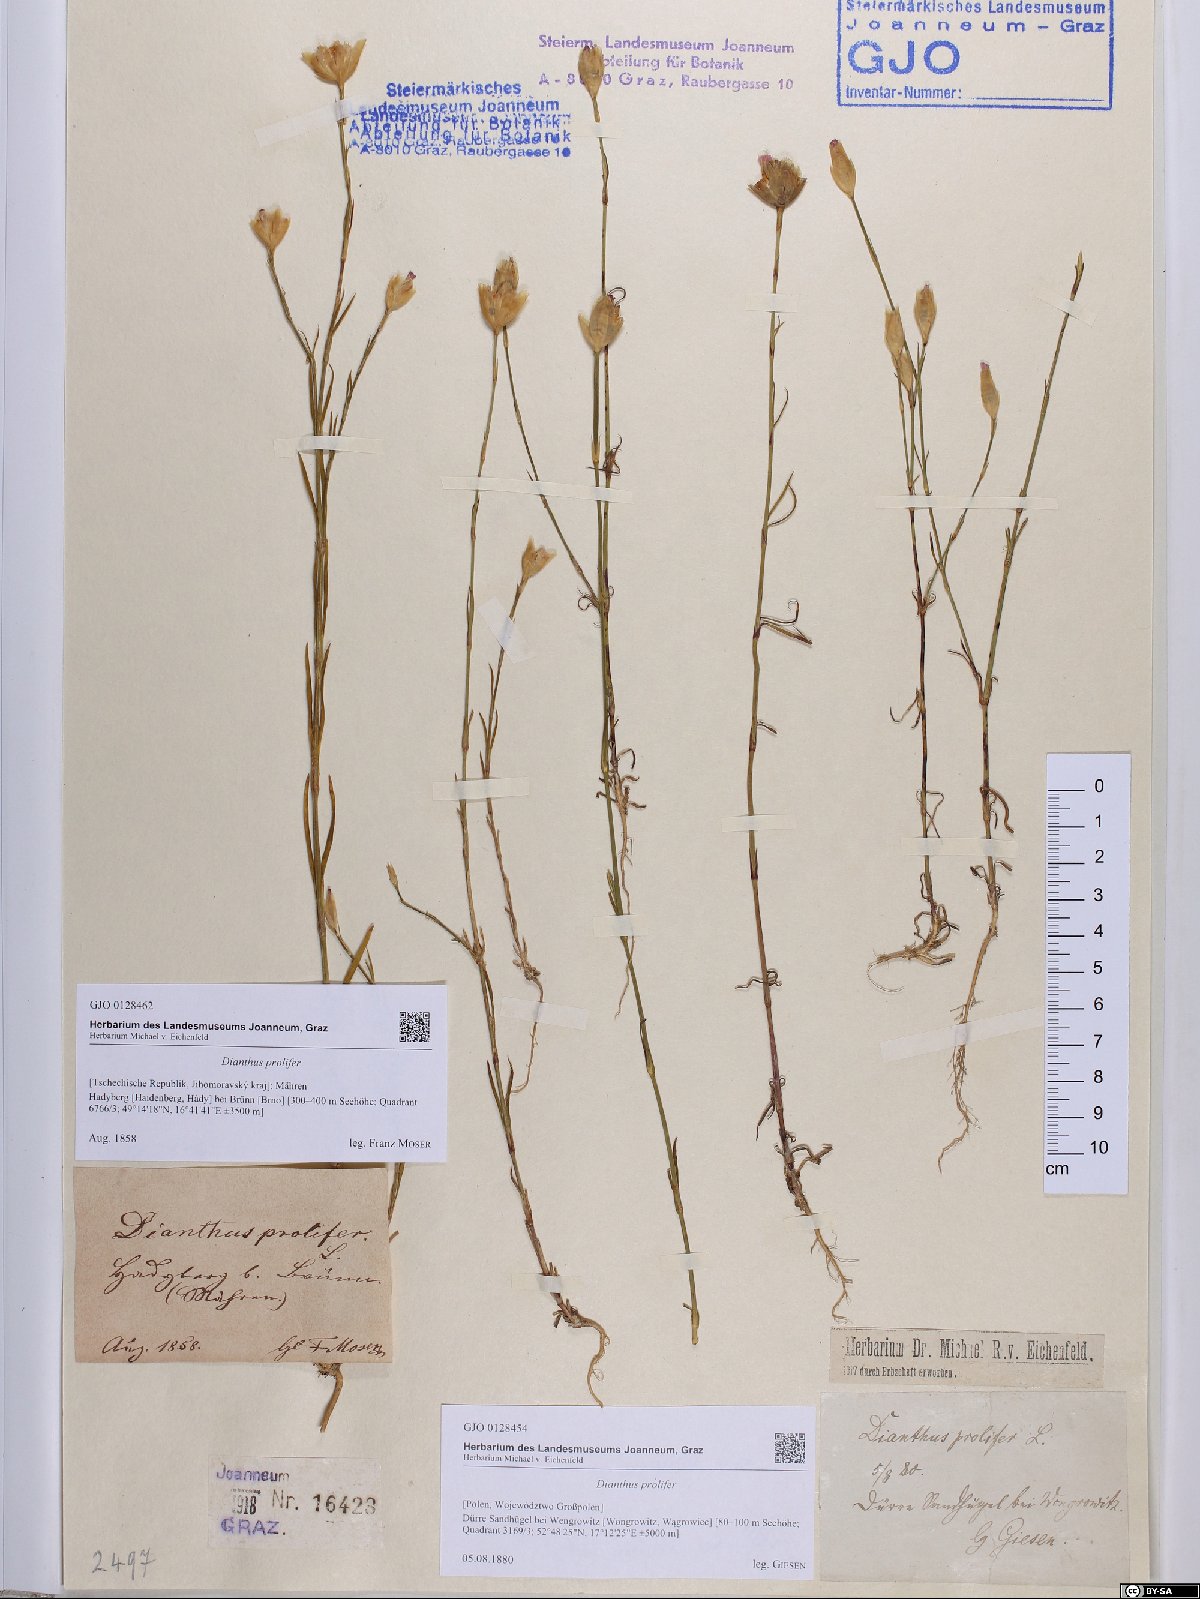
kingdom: Plantae
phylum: Tracheophyta
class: Magnoliopsida
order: Caryophyllales
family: Caryophyllaceae
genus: Petrorhagia
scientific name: Petrorhagia prolifera
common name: Proliferous pink
